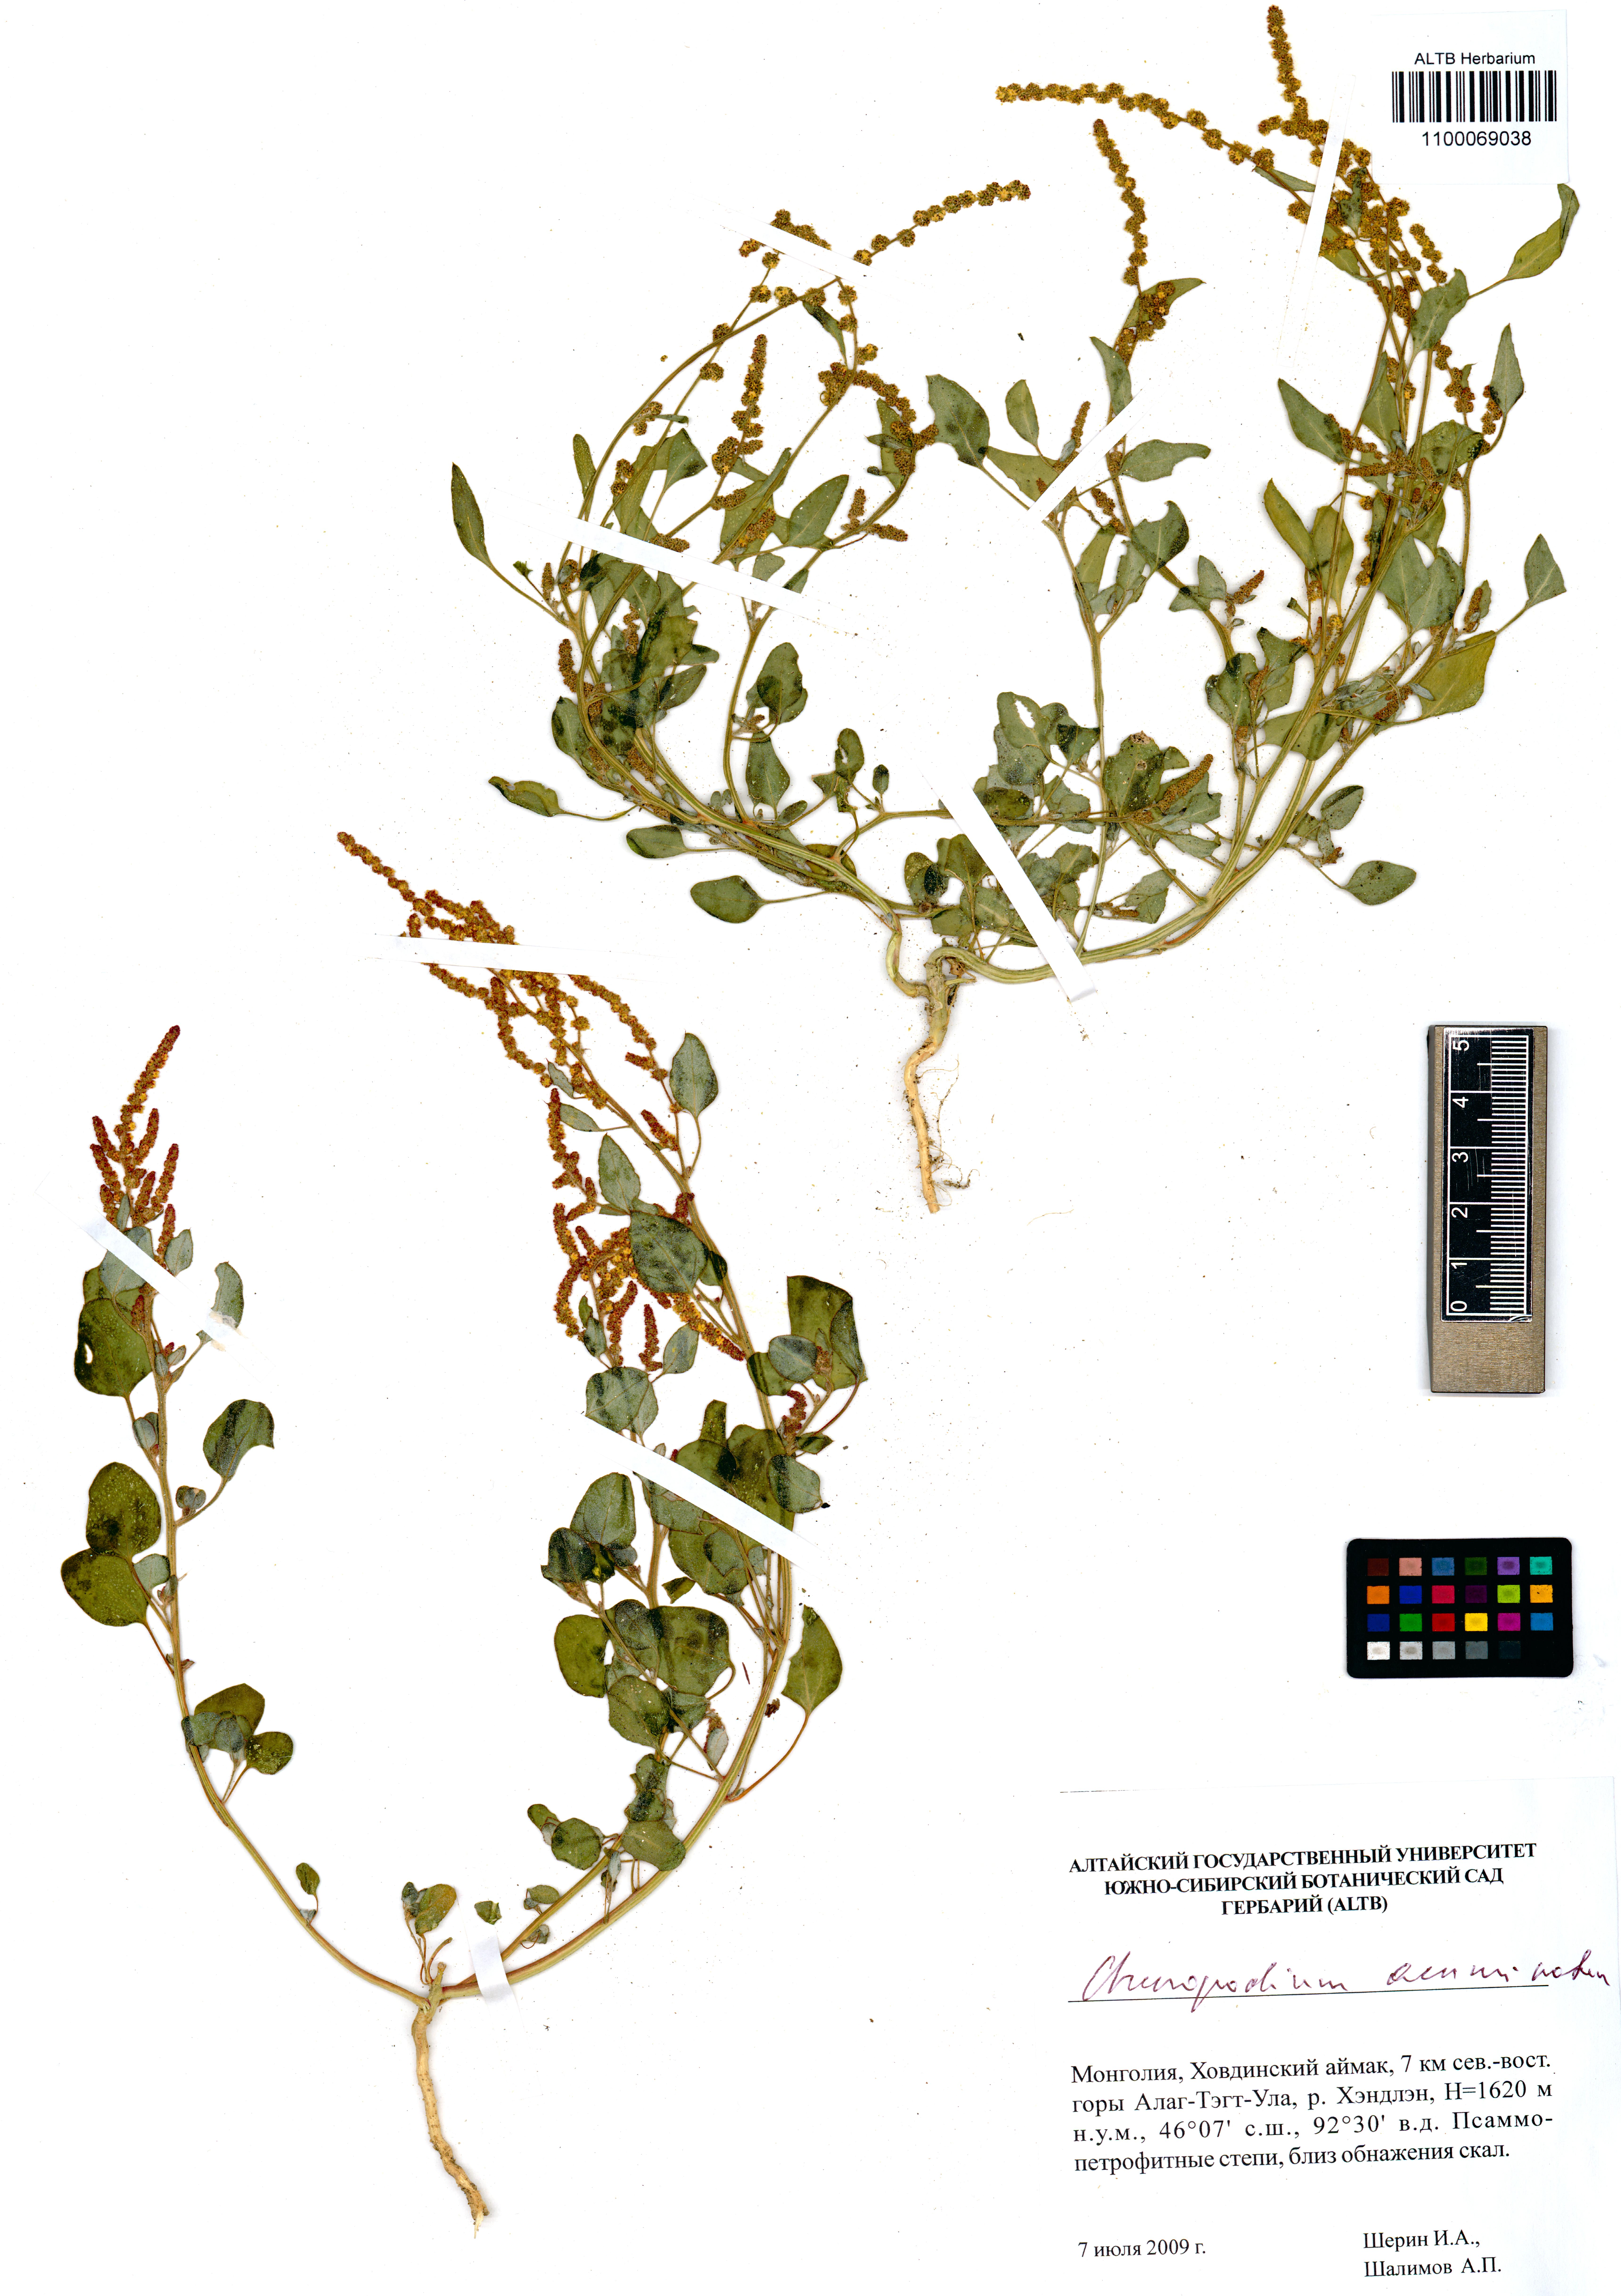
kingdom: Plantae
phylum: Tracheophyta
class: Magnoliopsida
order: Caryophyllales
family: Amaranthaceae
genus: Oxybasis
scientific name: Oxybasis rubra
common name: Red goosefoot
